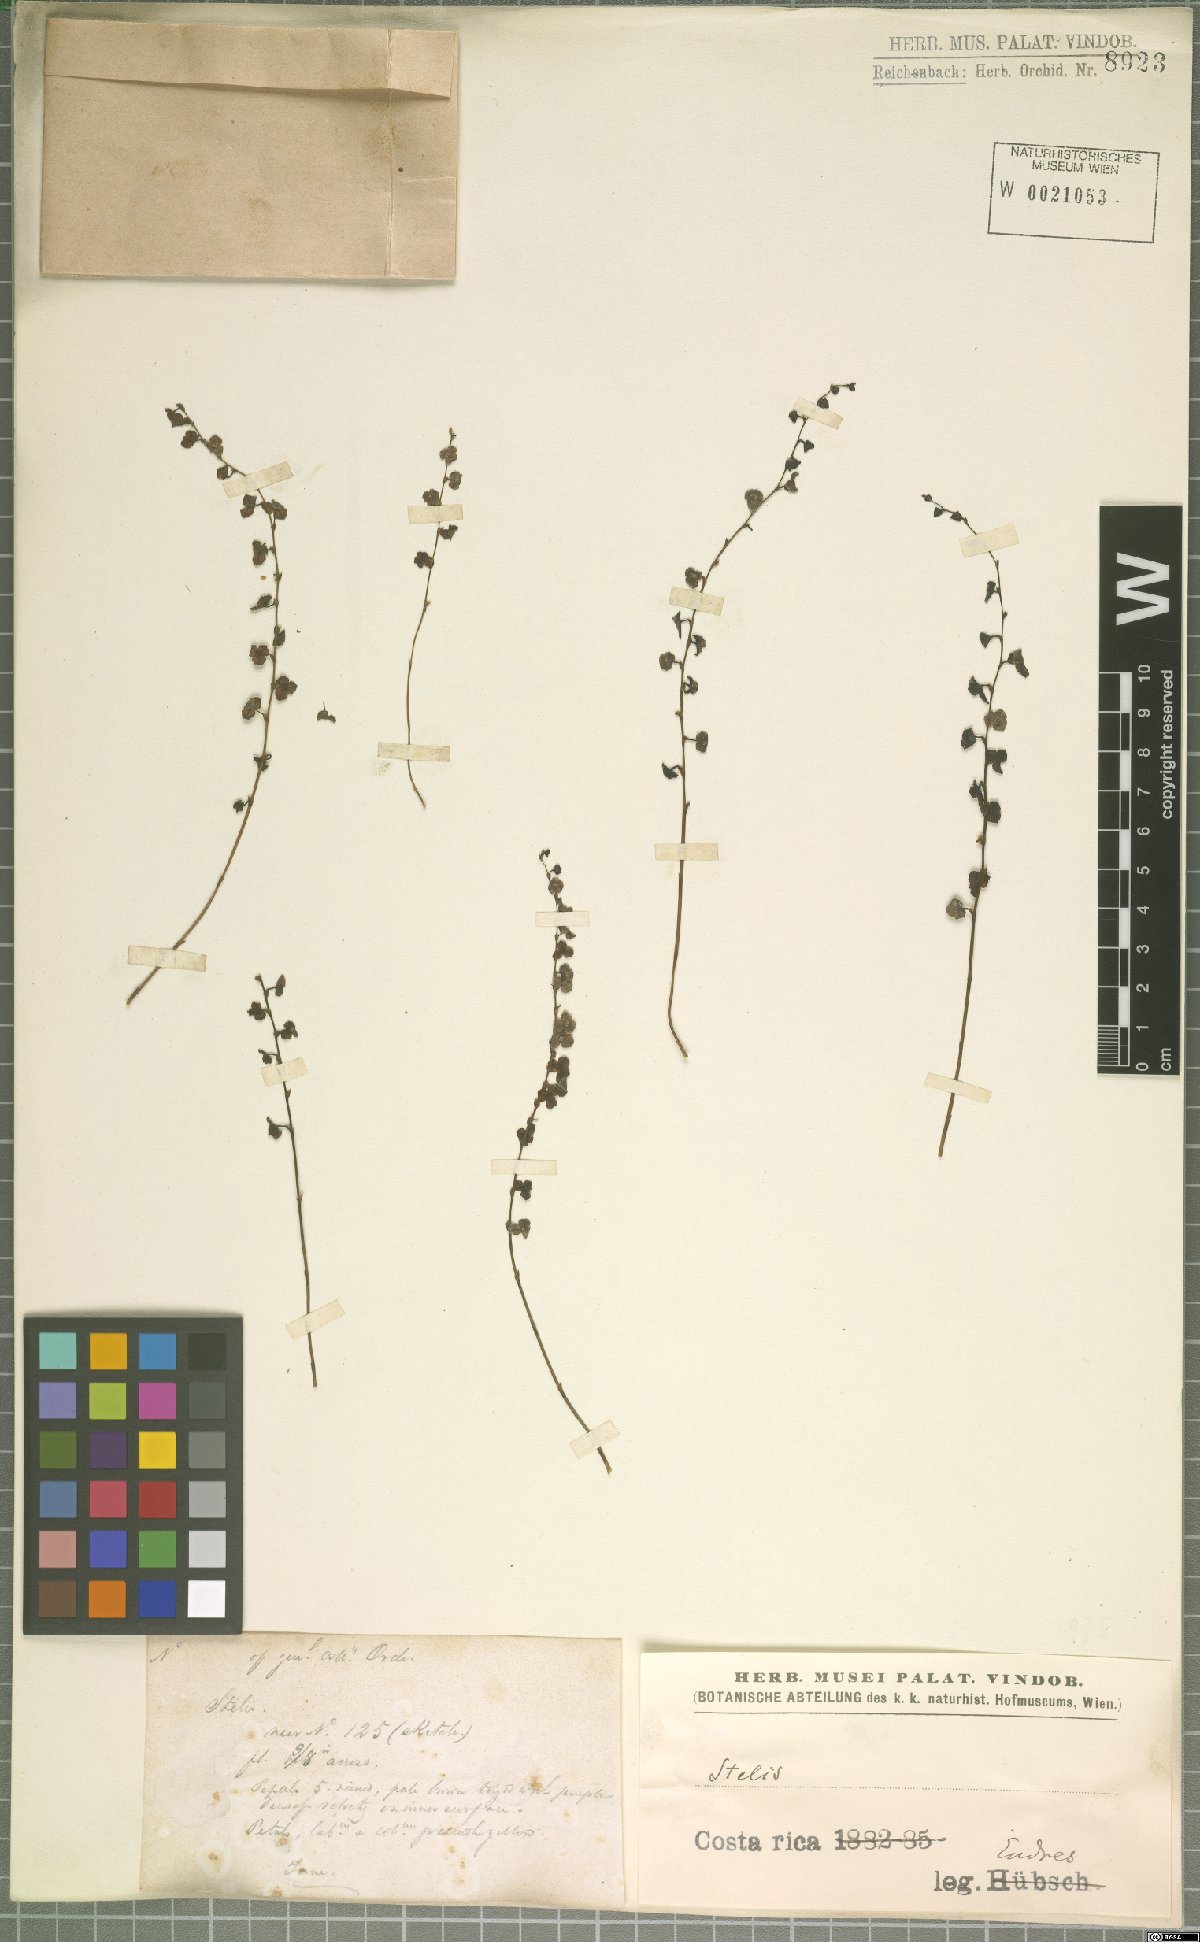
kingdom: Plantae
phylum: Tracheophyta
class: Liliopsida
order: Asparagales
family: Orchidaceae
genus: Stelis
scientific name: Stelis
